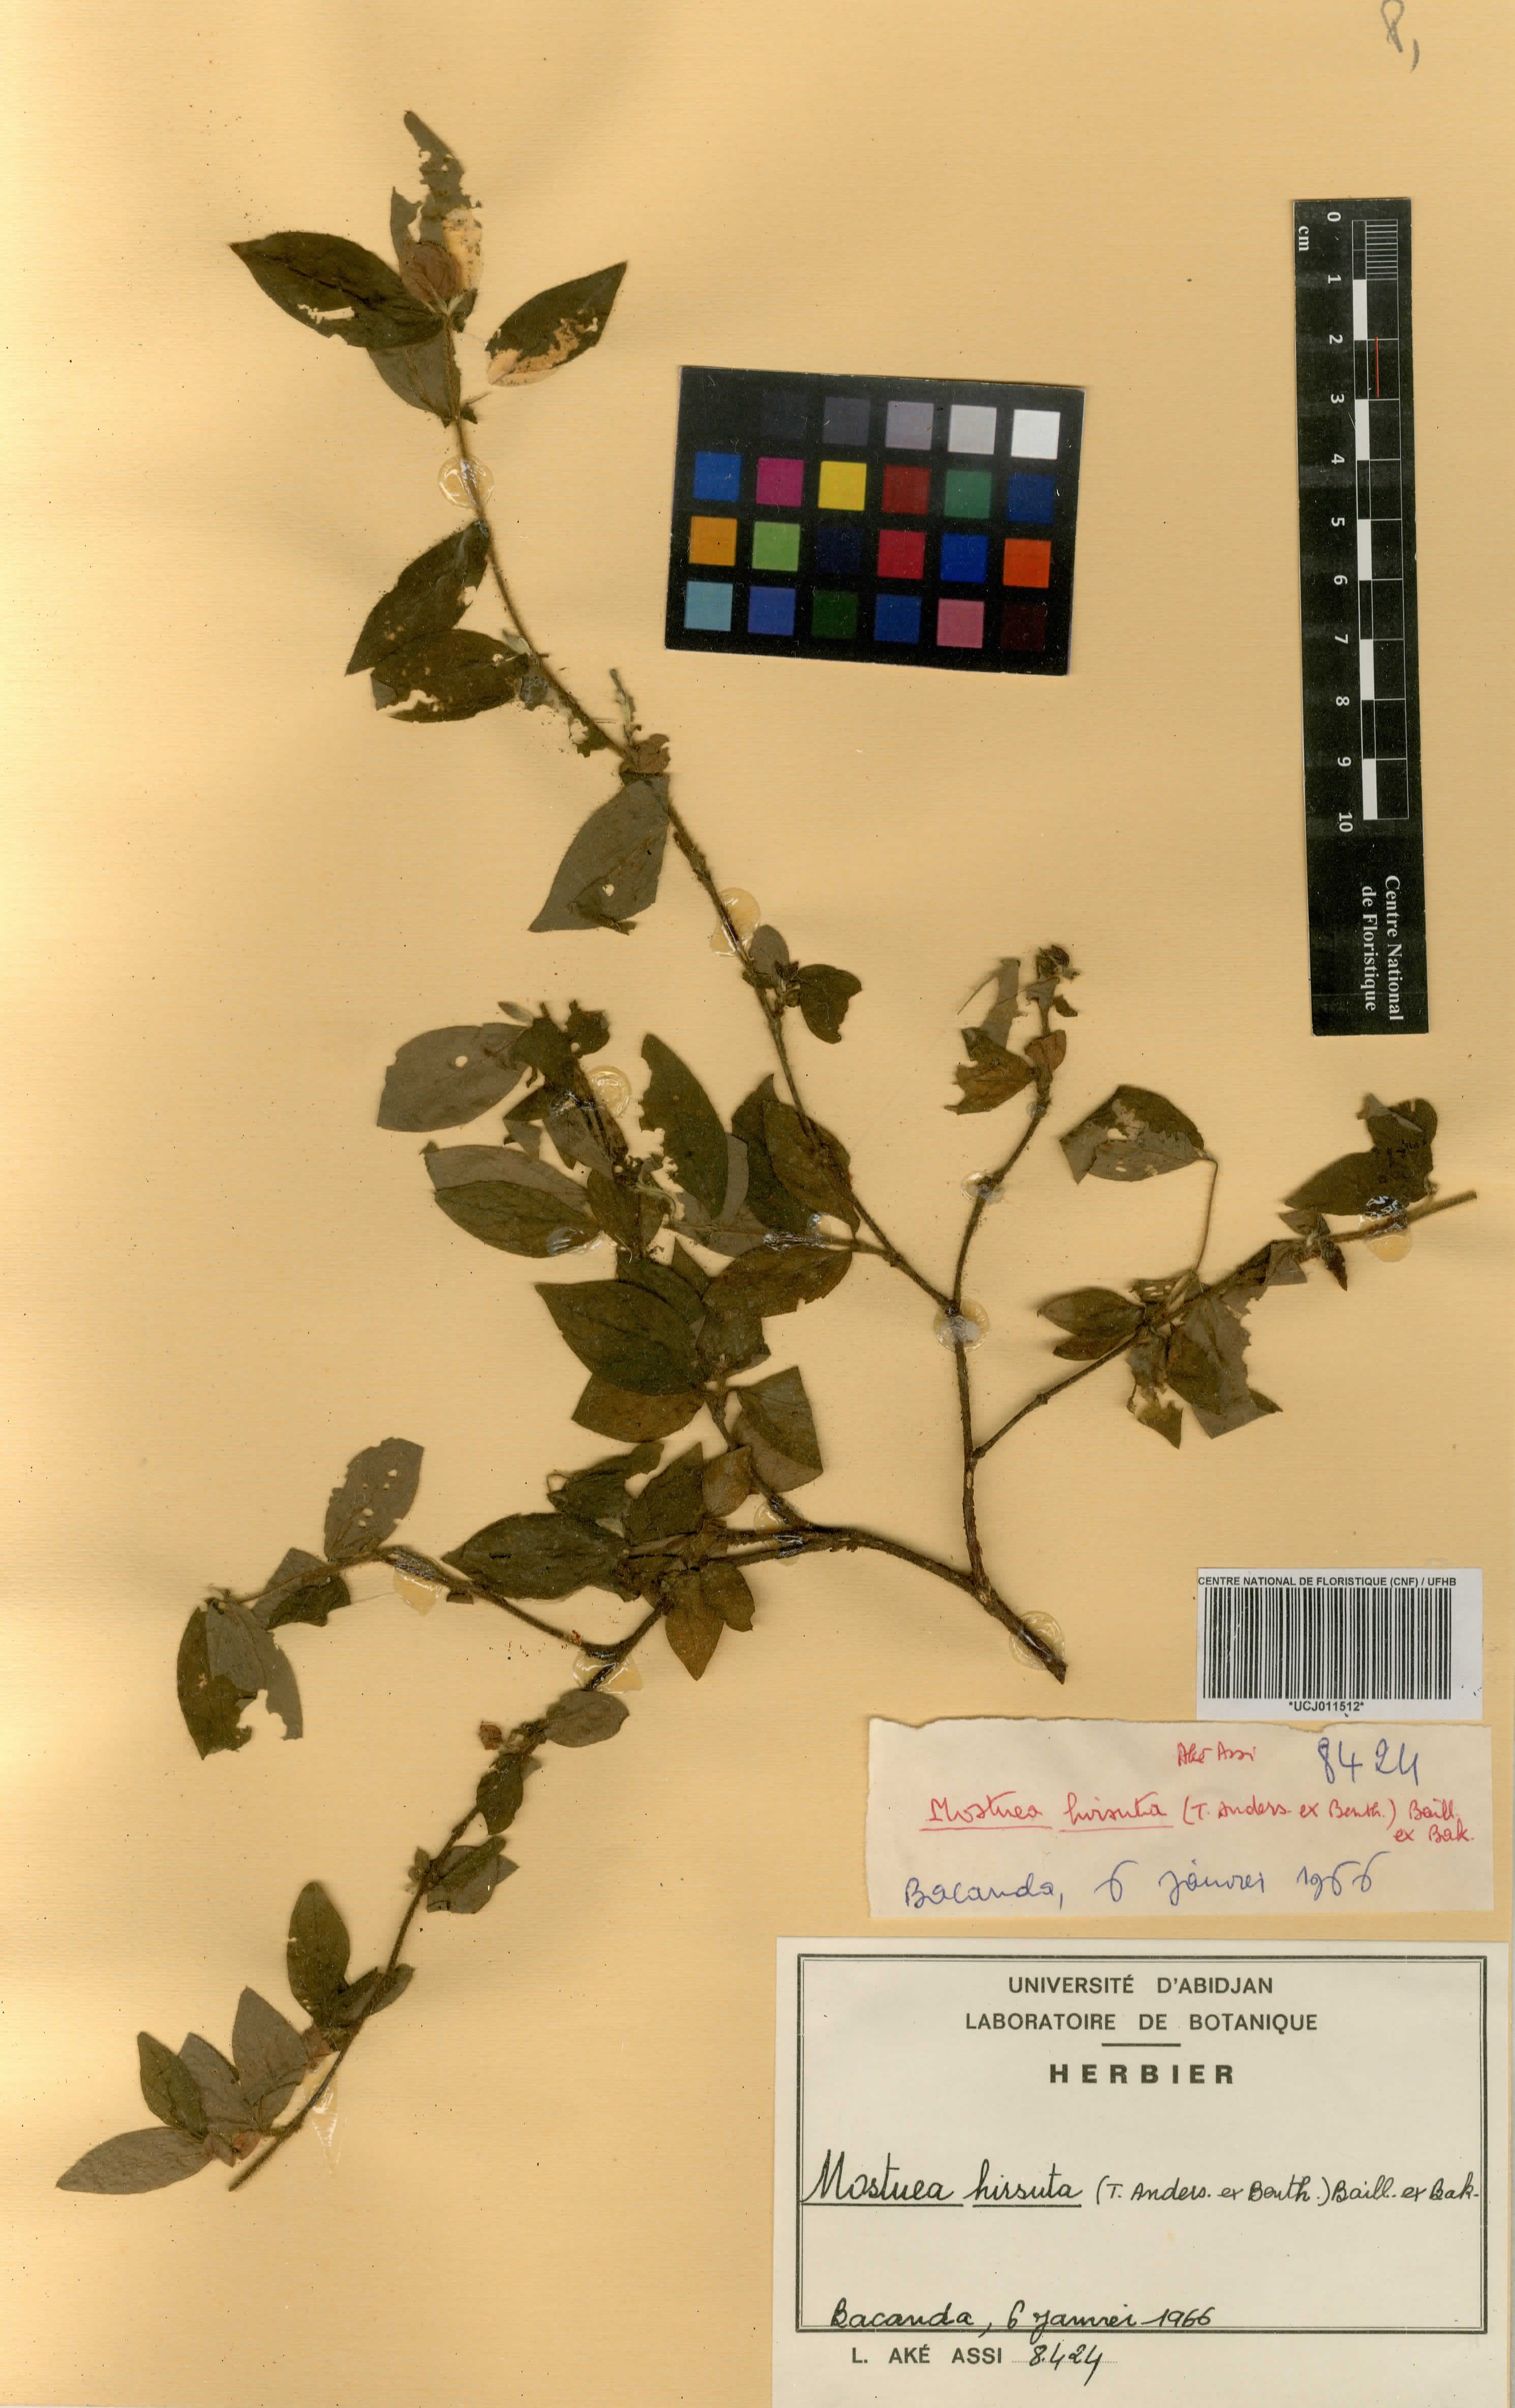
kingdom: Plantae
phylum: Tracheophyta
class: Magnoliopsida
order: Gentianales
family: Gelsemiaceae
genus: Mostuea
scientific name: Mostuea hirsuta
